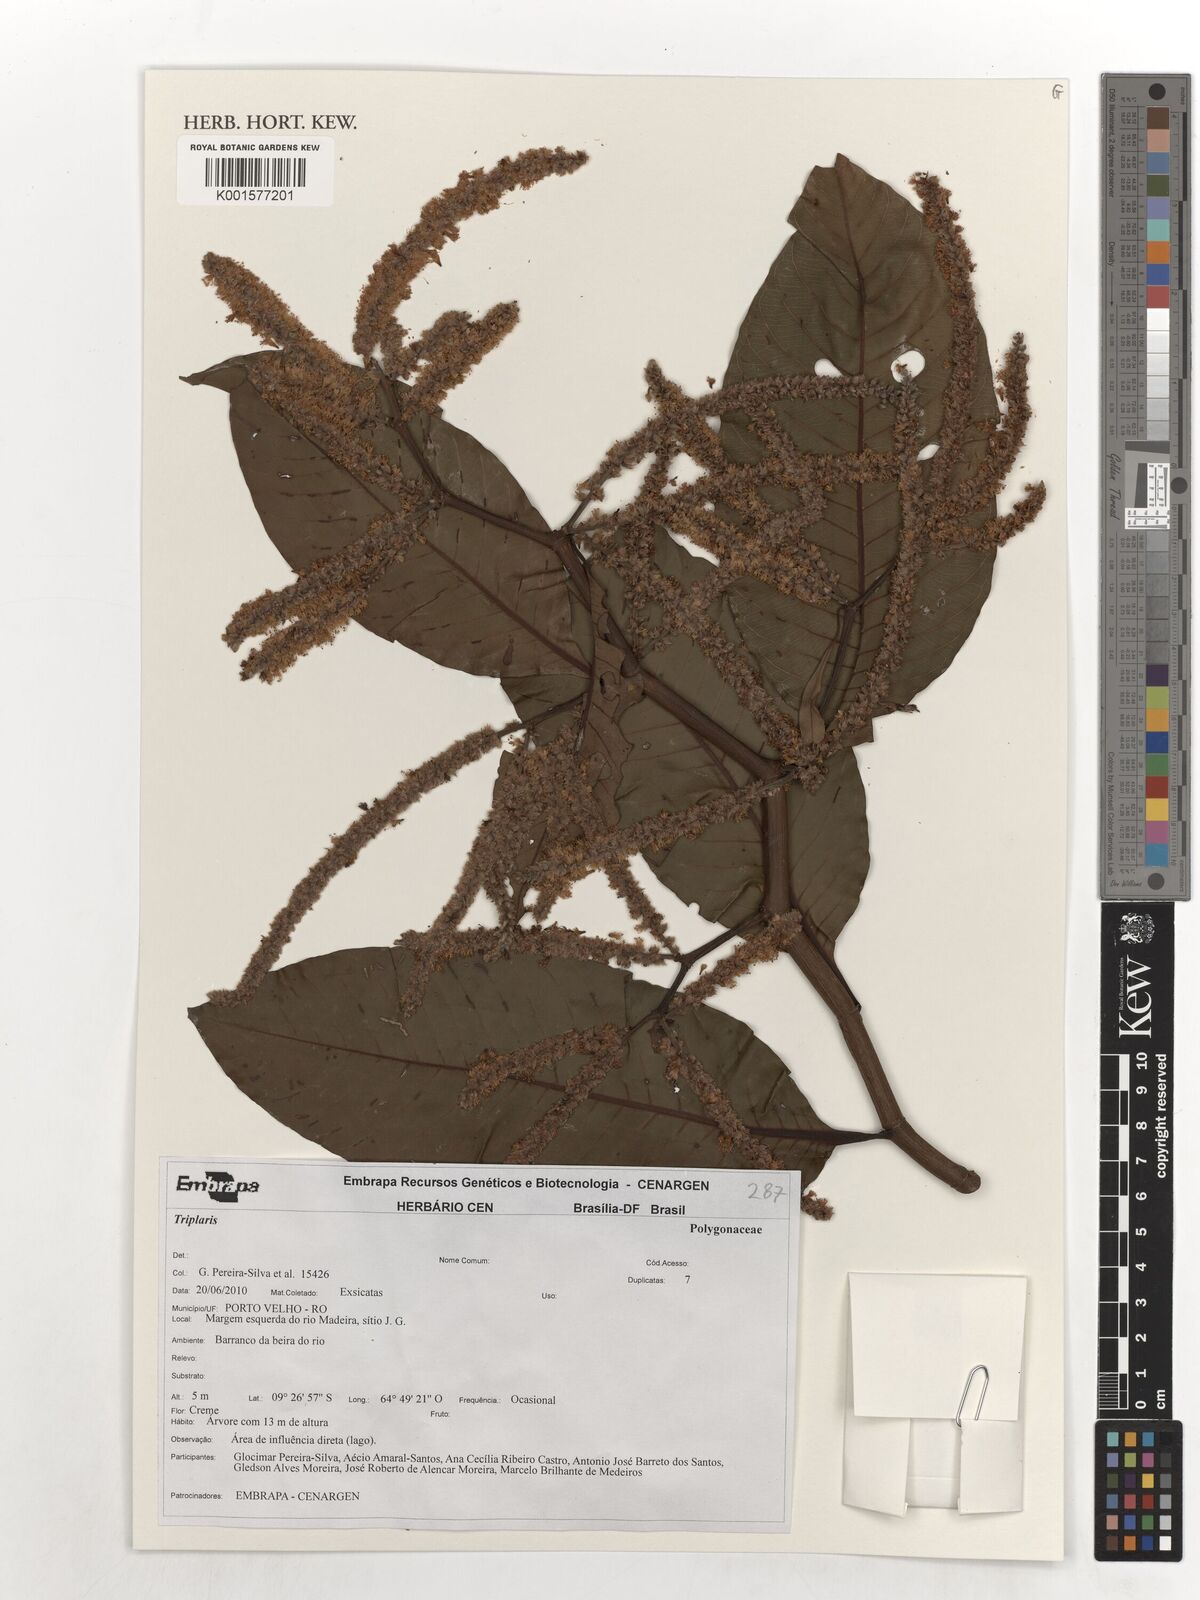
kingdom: Plantae
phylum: Tracheophyta
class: Magnoliopsida
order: Caryophyllales
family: Polygonaceae
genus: Triplaris
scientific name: Triplaris
